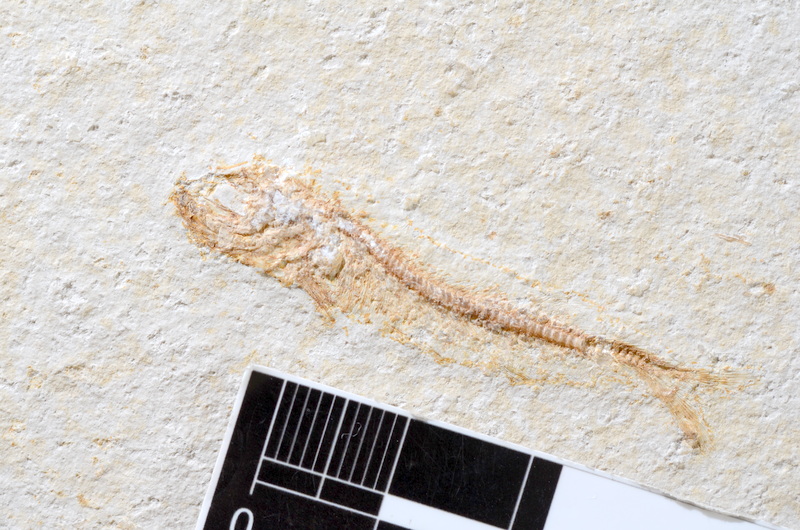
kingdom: Animalia
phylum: Chordata
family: Allothrissopidae
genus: Allothrissops
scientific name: Allothrissops mesogaster
